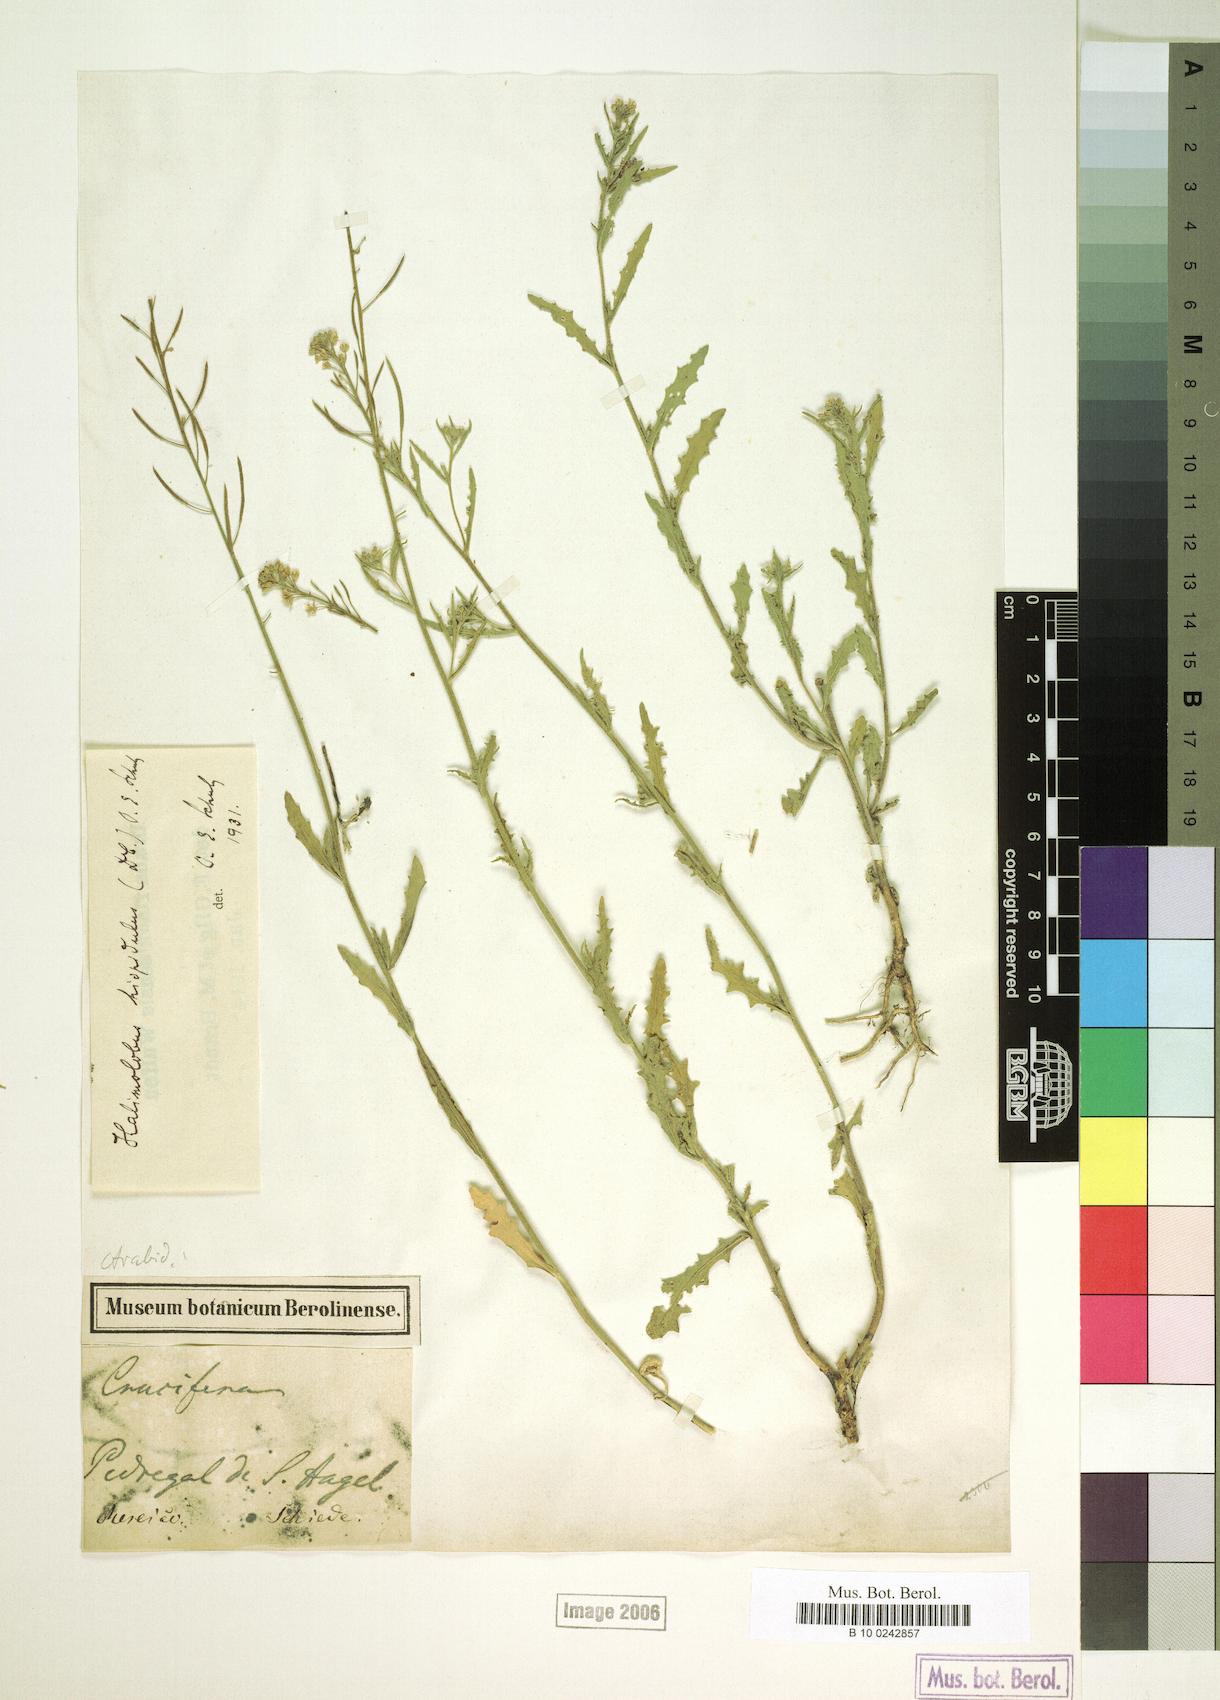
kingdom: Plantae
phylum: Tracheophyta
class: Magnoliopsida
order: Brassicales
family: Brassicaceae
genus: Halimolobus
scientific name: Halimolobus
